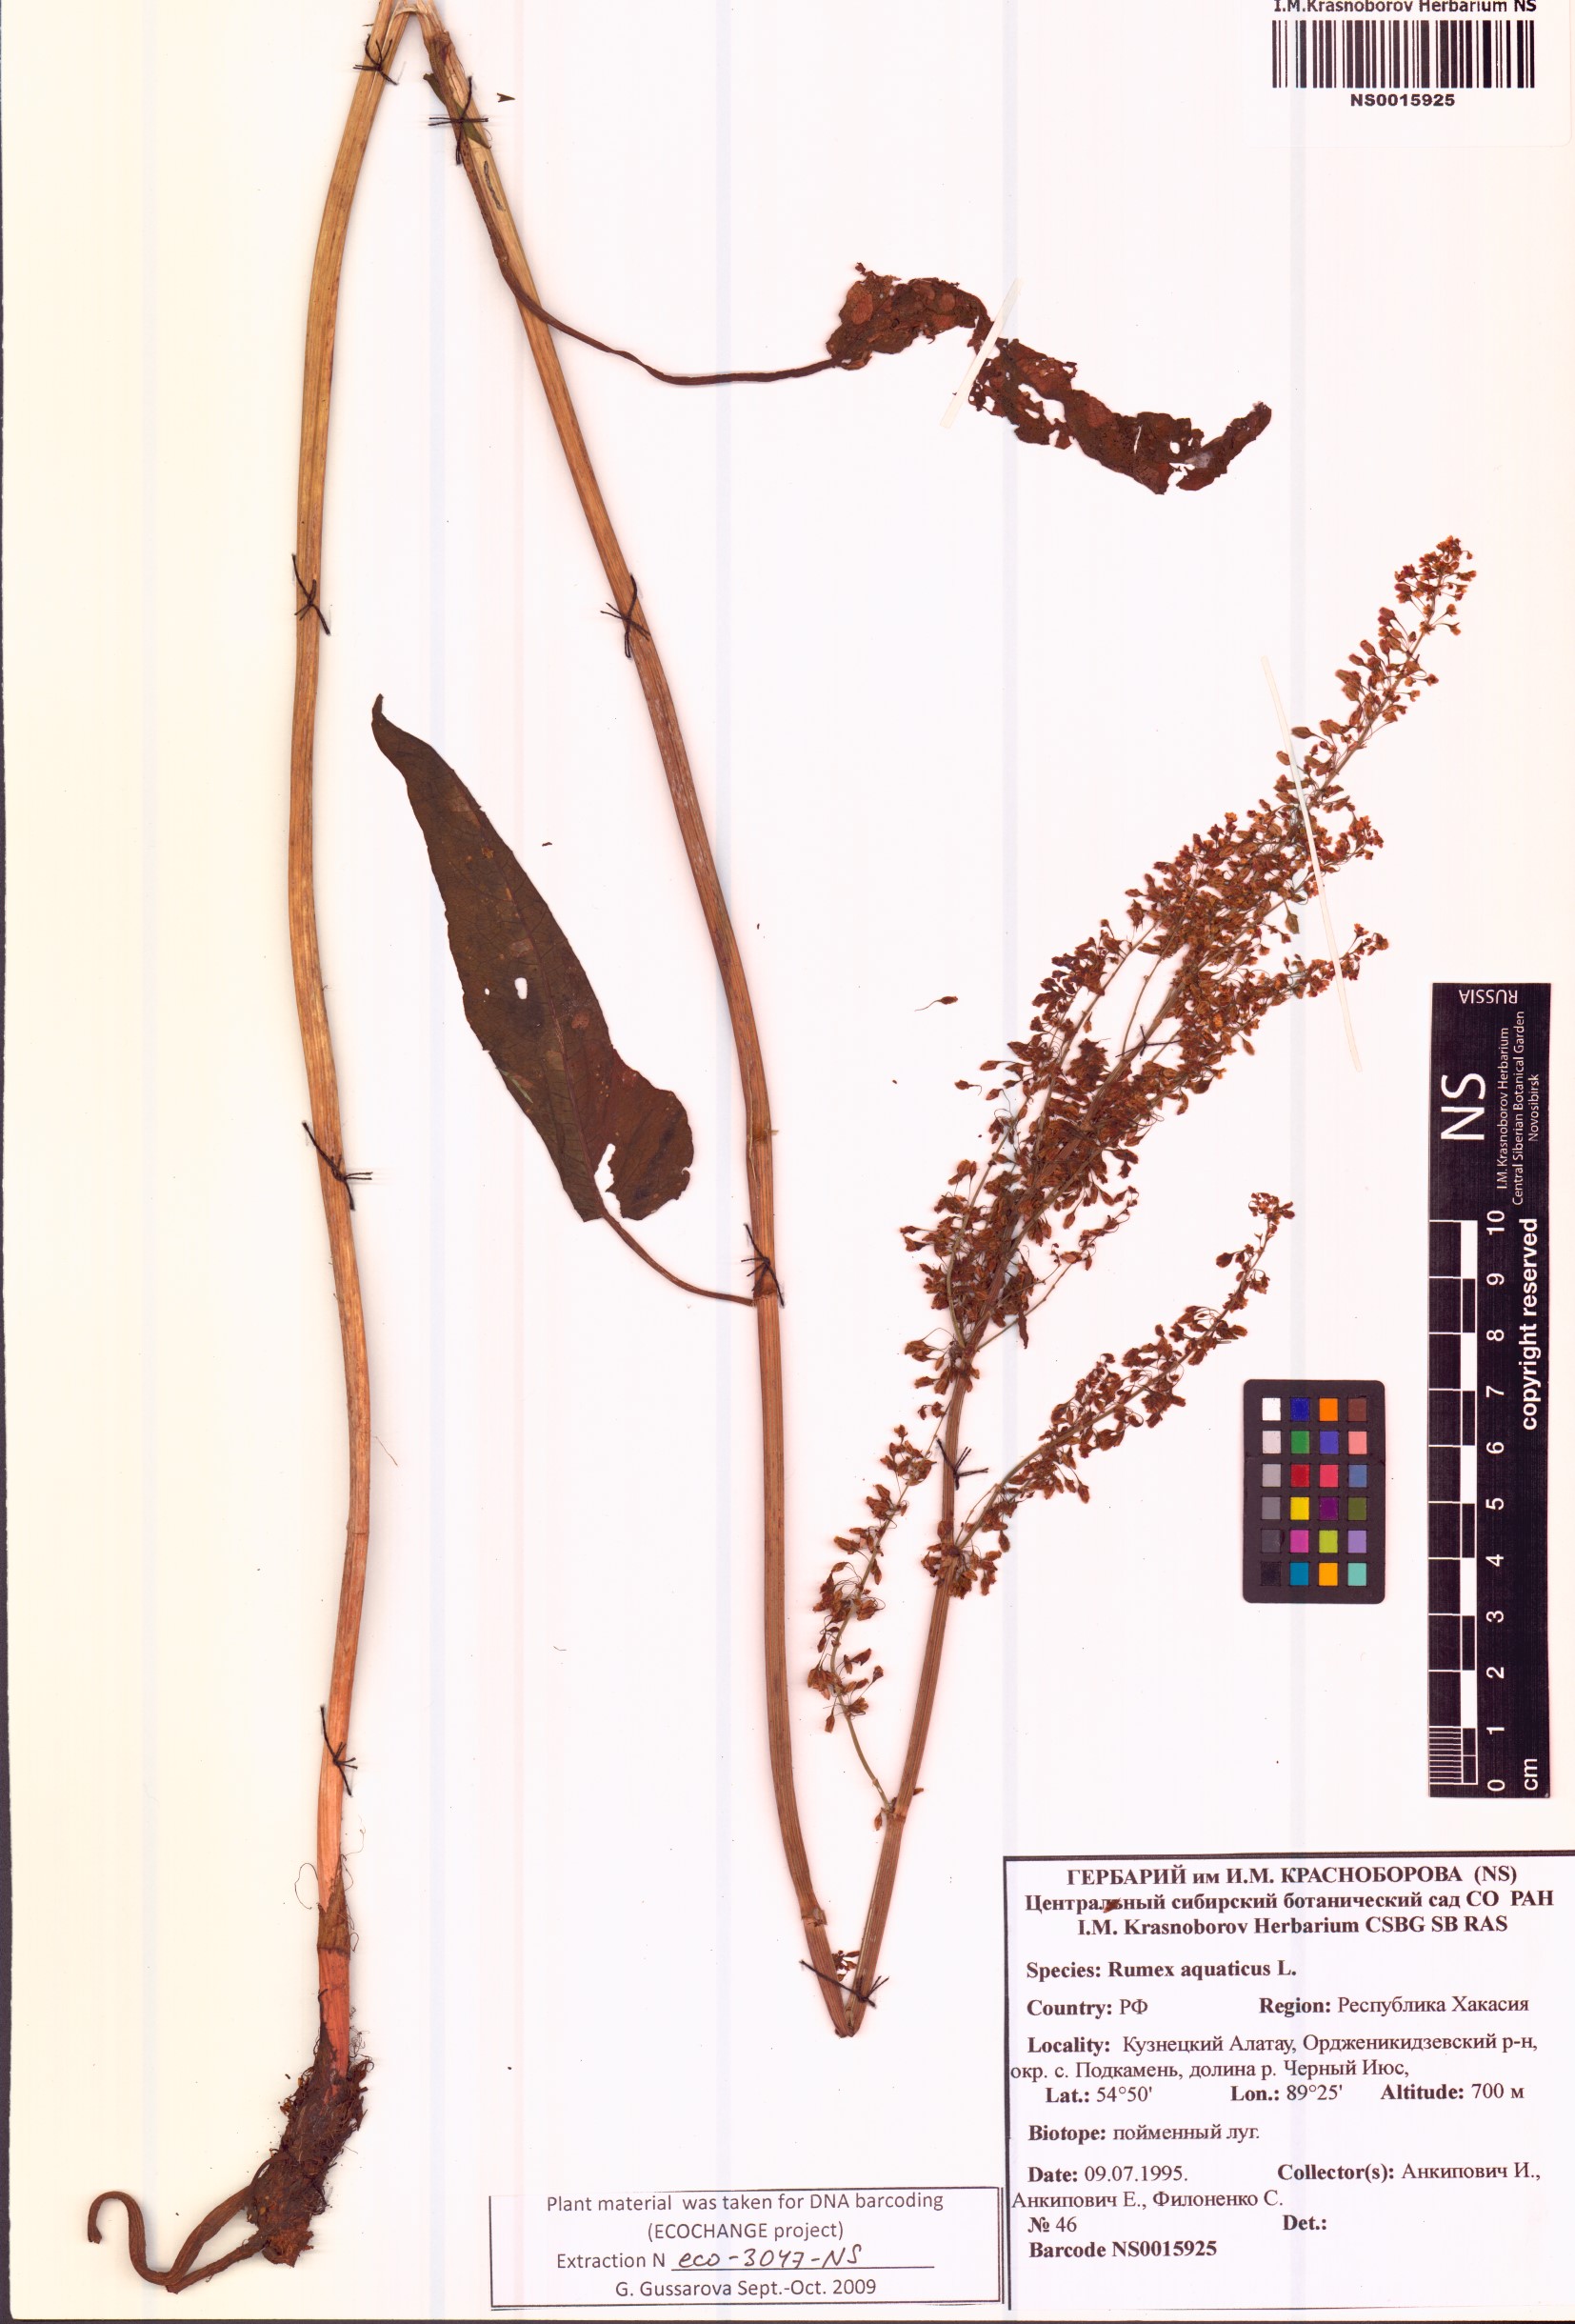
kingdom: Plantae
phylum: Tracheophyta
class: Magnoliopsida
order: Caryophyllales
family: Polygonaceae
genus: Rumex
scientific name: Rumex aquaticus
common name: Scottish dock
